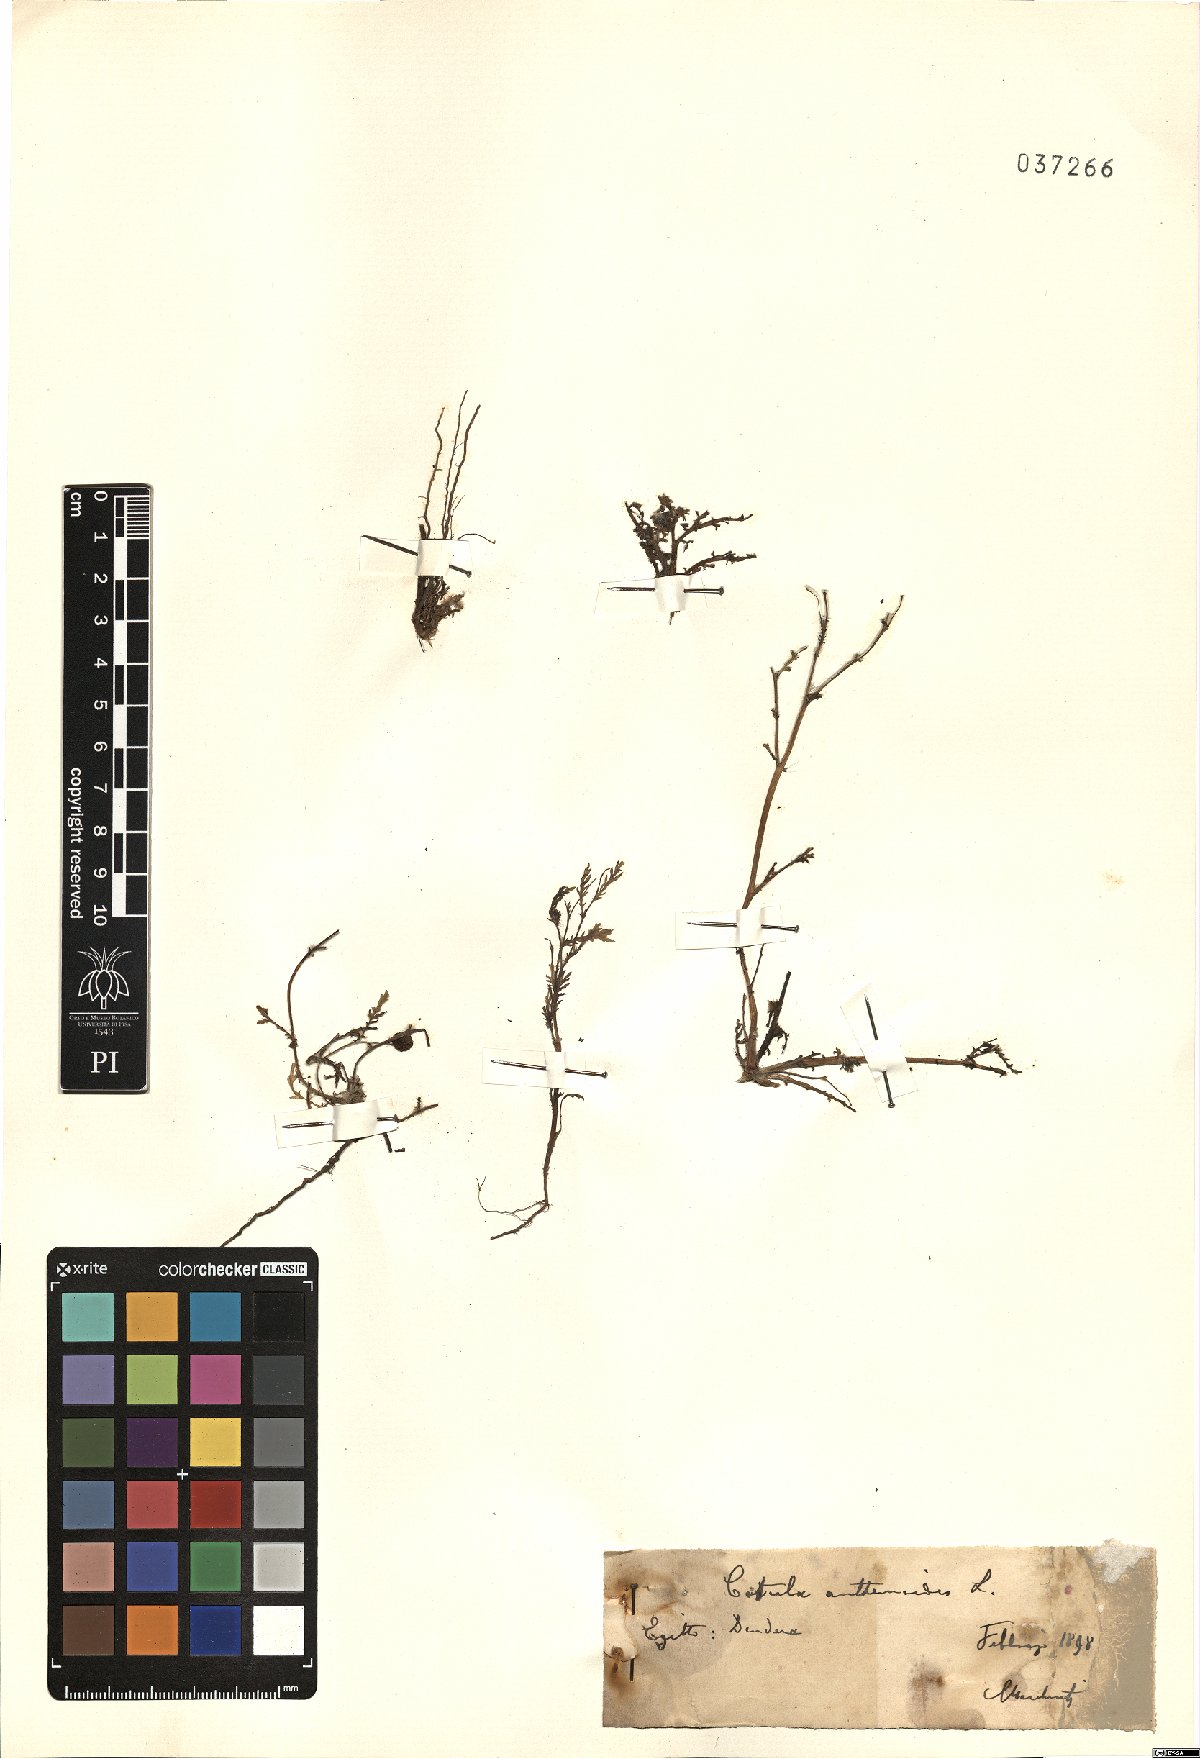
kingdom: Plantae
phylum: Tracheophyta
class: Magnoliopsida
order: Asterales
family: Asteraceae
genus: Cotula
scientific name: Cotula anthemoides
